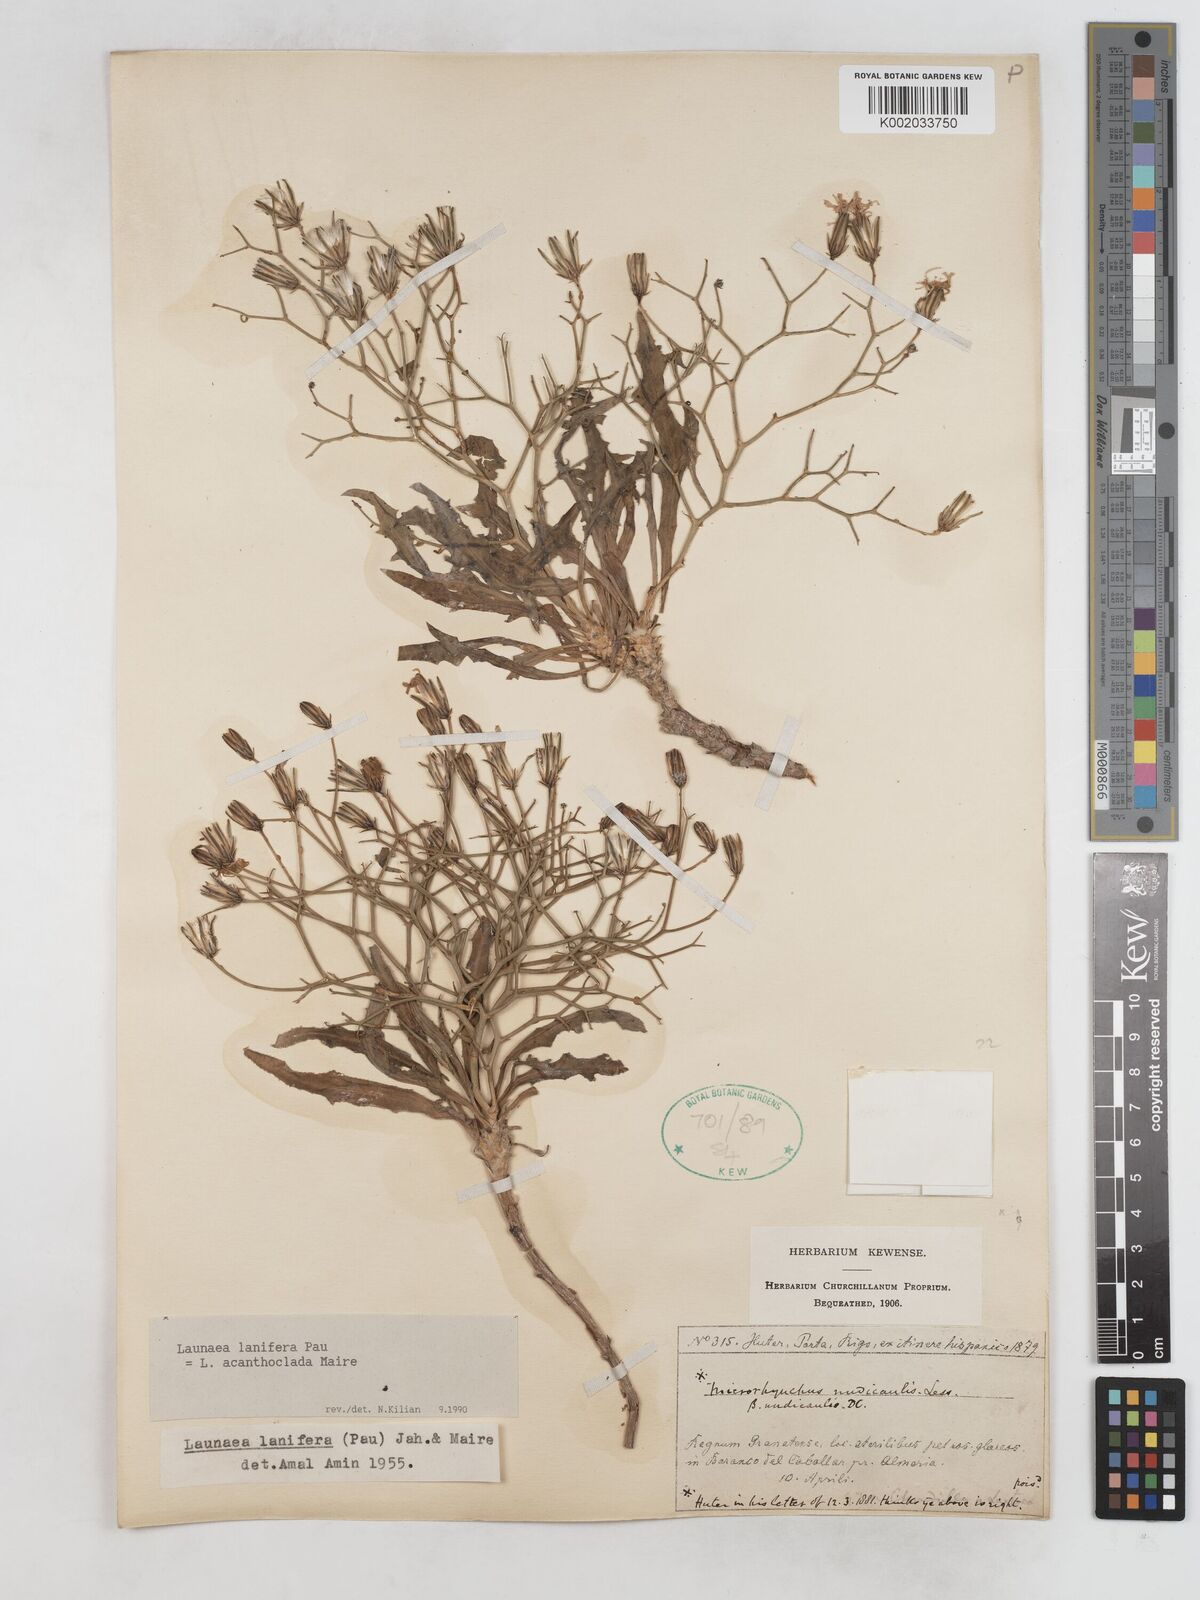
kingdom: Plantae
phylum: Tracheophyta
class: Magnoliopsida
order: Asterales
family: Asteraceae
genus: Launaea
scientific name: Launaea lanifera
